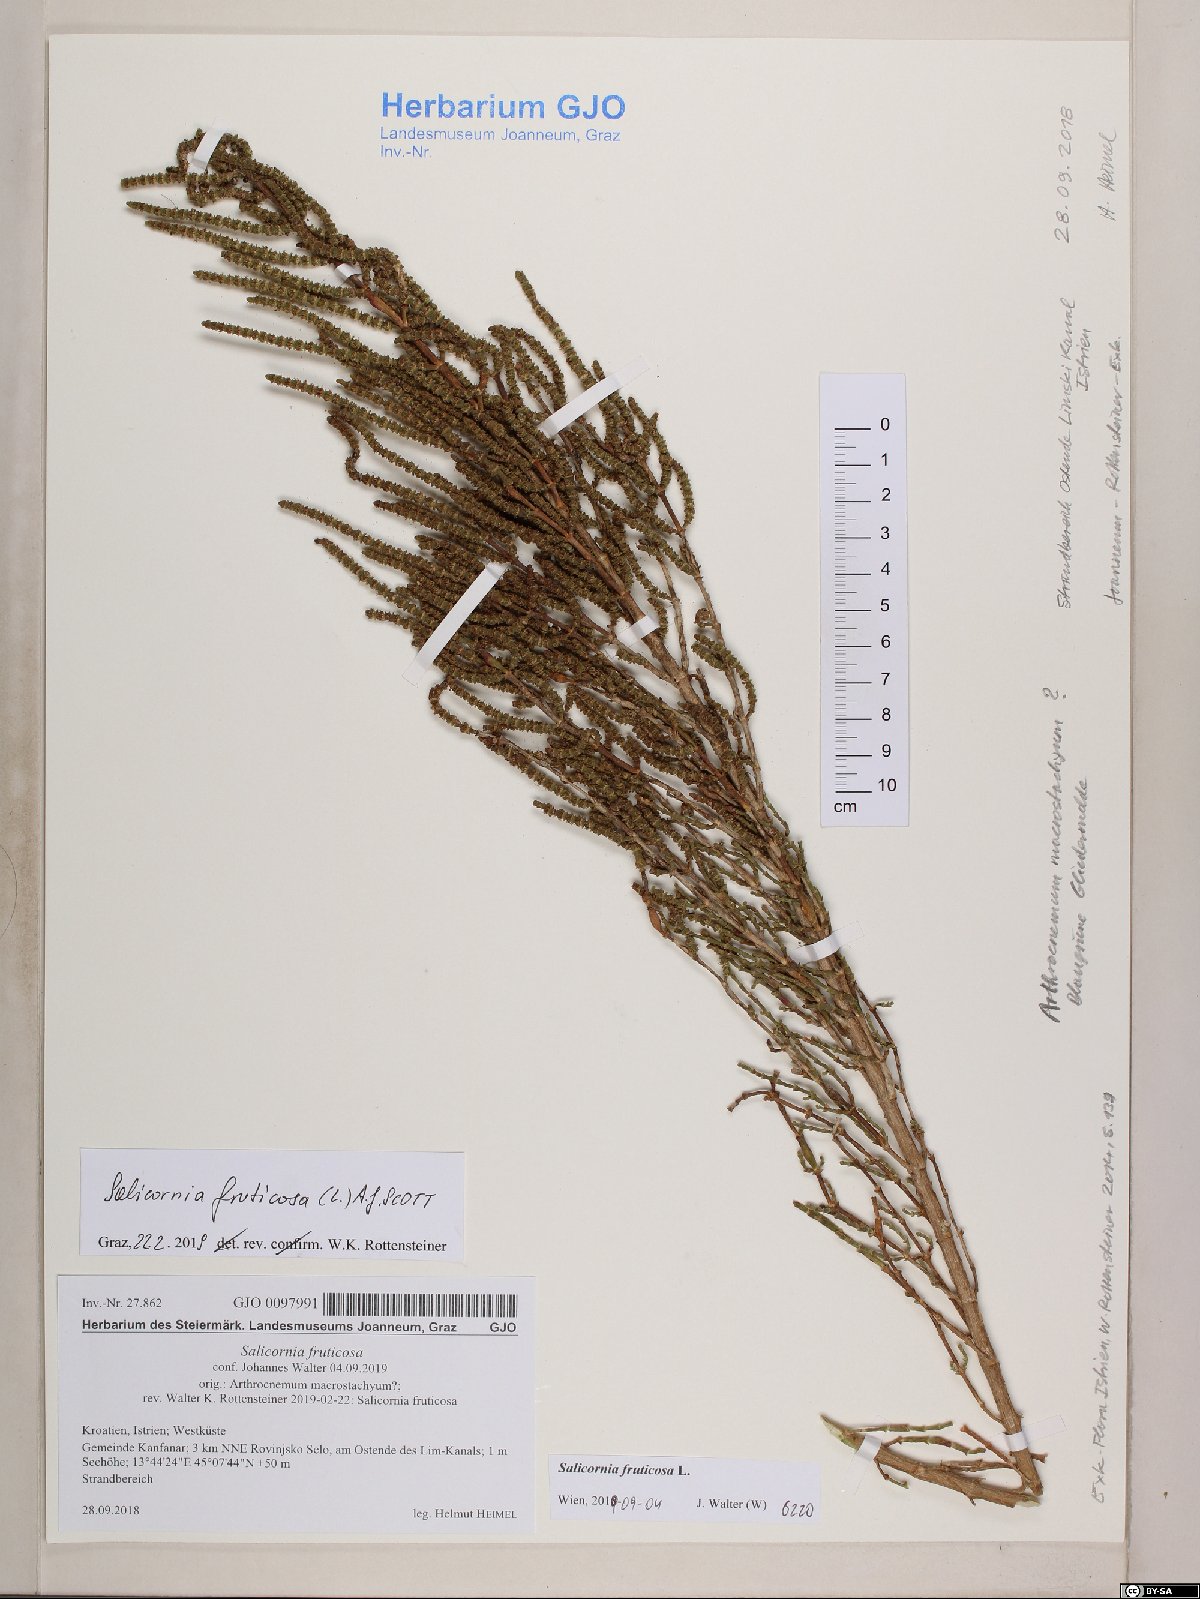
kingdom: Plantae
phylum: Tracheophyta
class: Magnoliopsida
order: Caryophyllales
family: Amaranthaceae
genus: Salicornia
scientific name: Salicornia fruticosa
